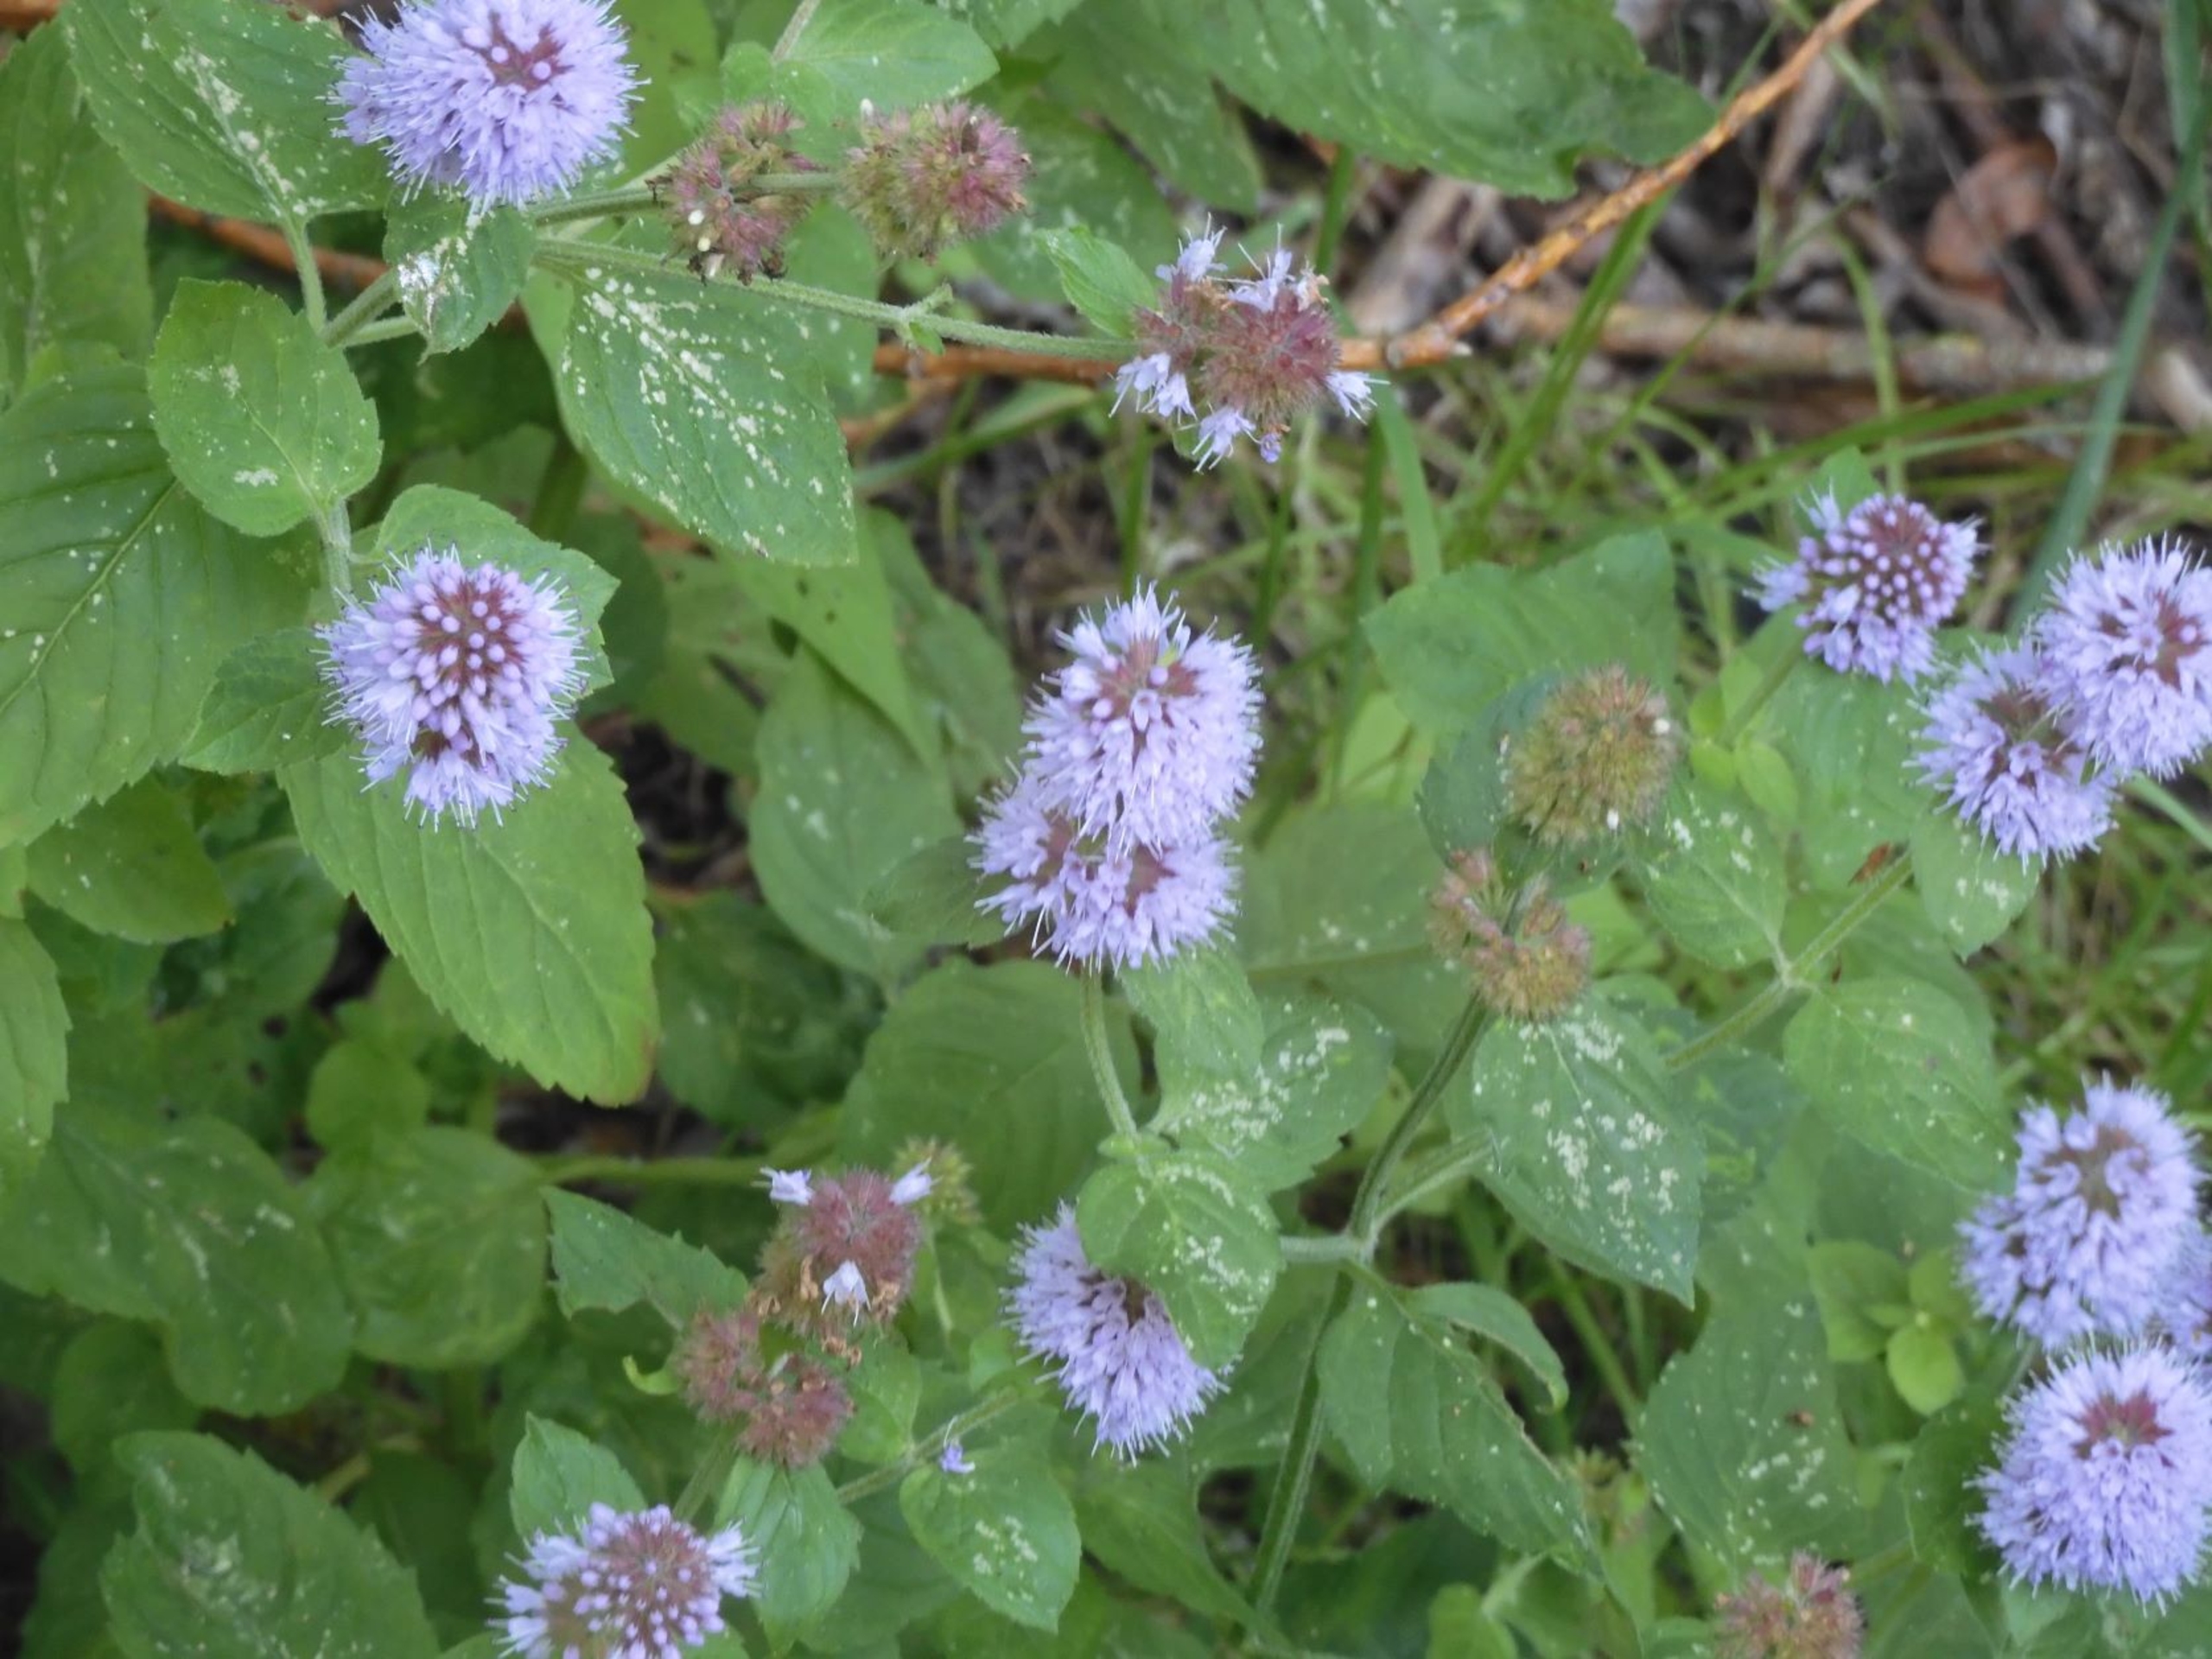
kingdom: Plantae
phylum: Tracheophyta
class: Magnoliopsida
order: Lamiales
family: Lamiaceae
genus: Mentha
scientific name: Mentha aquatica
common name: Vand-mynte
